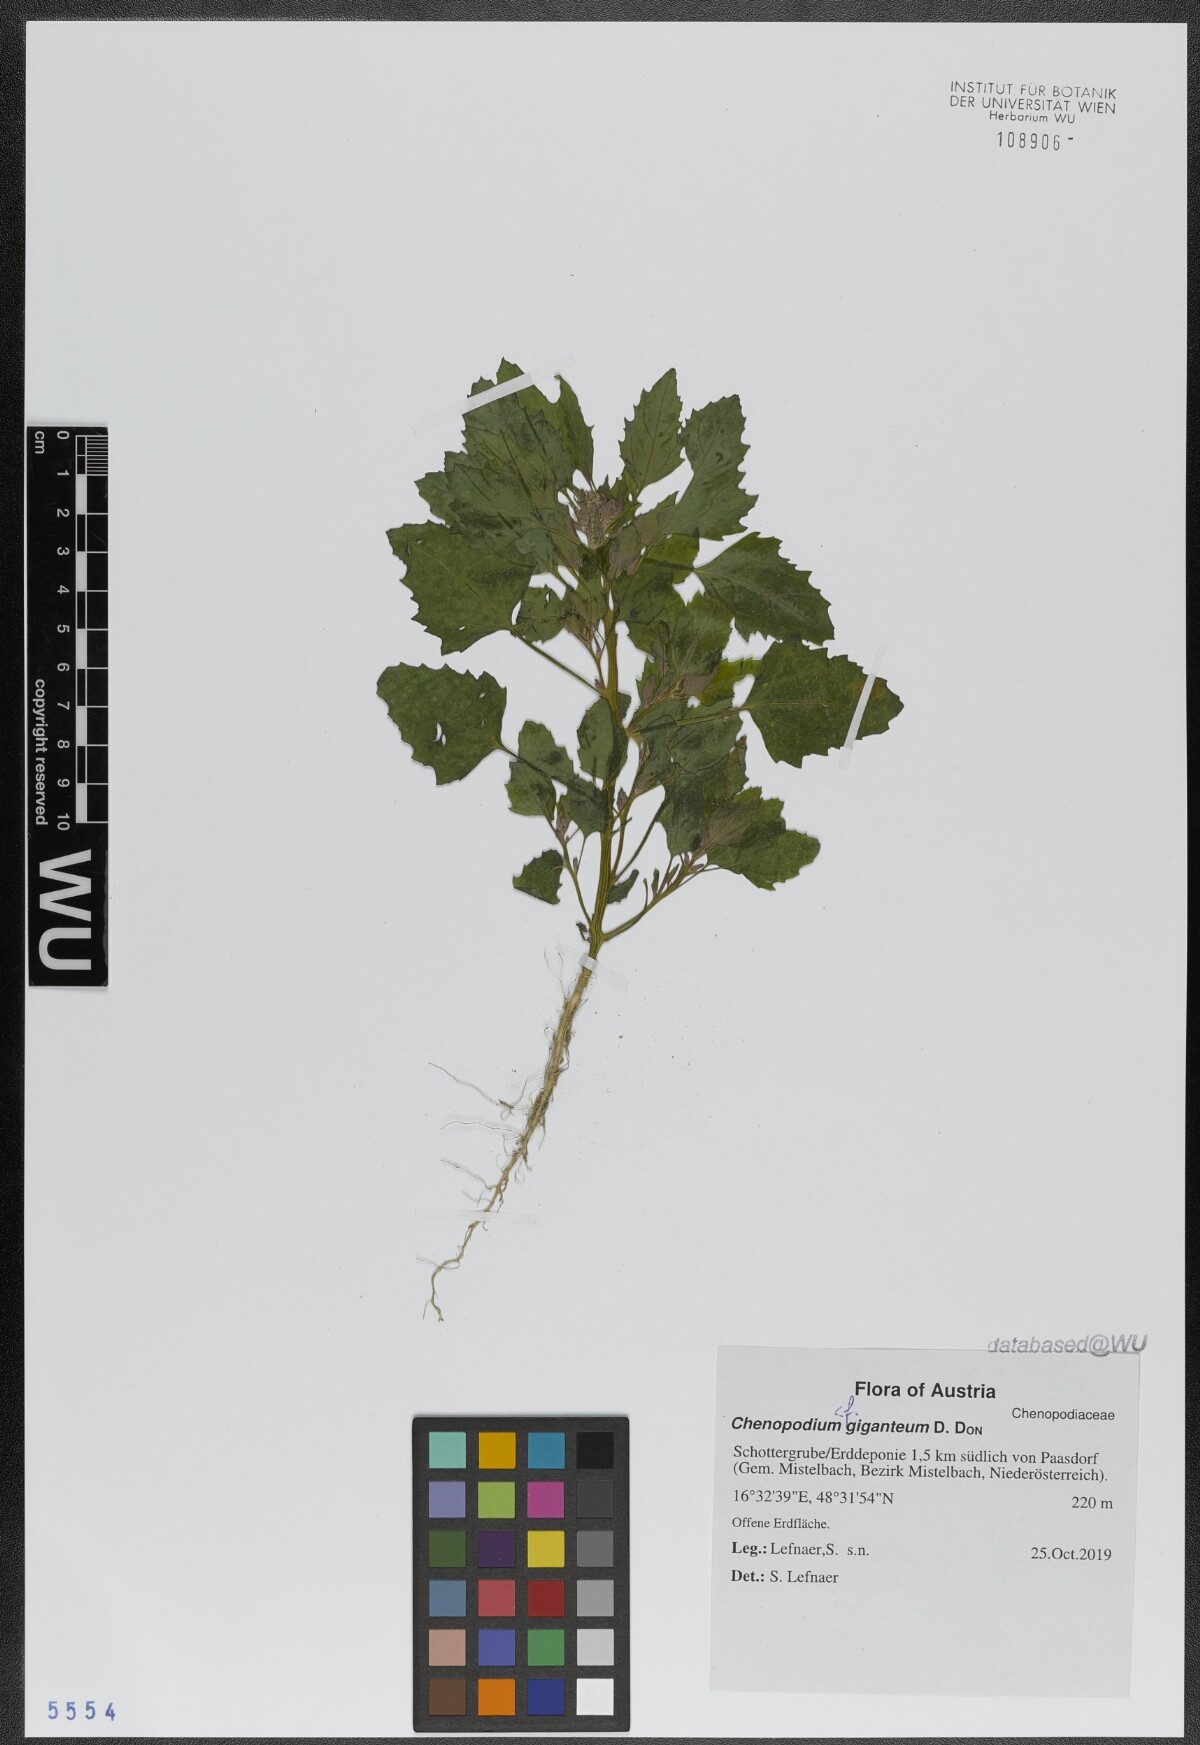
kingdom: Plantae
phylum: Tracheophyta
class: Magnoliopsida
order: Caryophyllales
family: Amaranthaceae
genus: Chenopodium
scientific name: Chenopodium giganteum
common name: Magentaspreen
